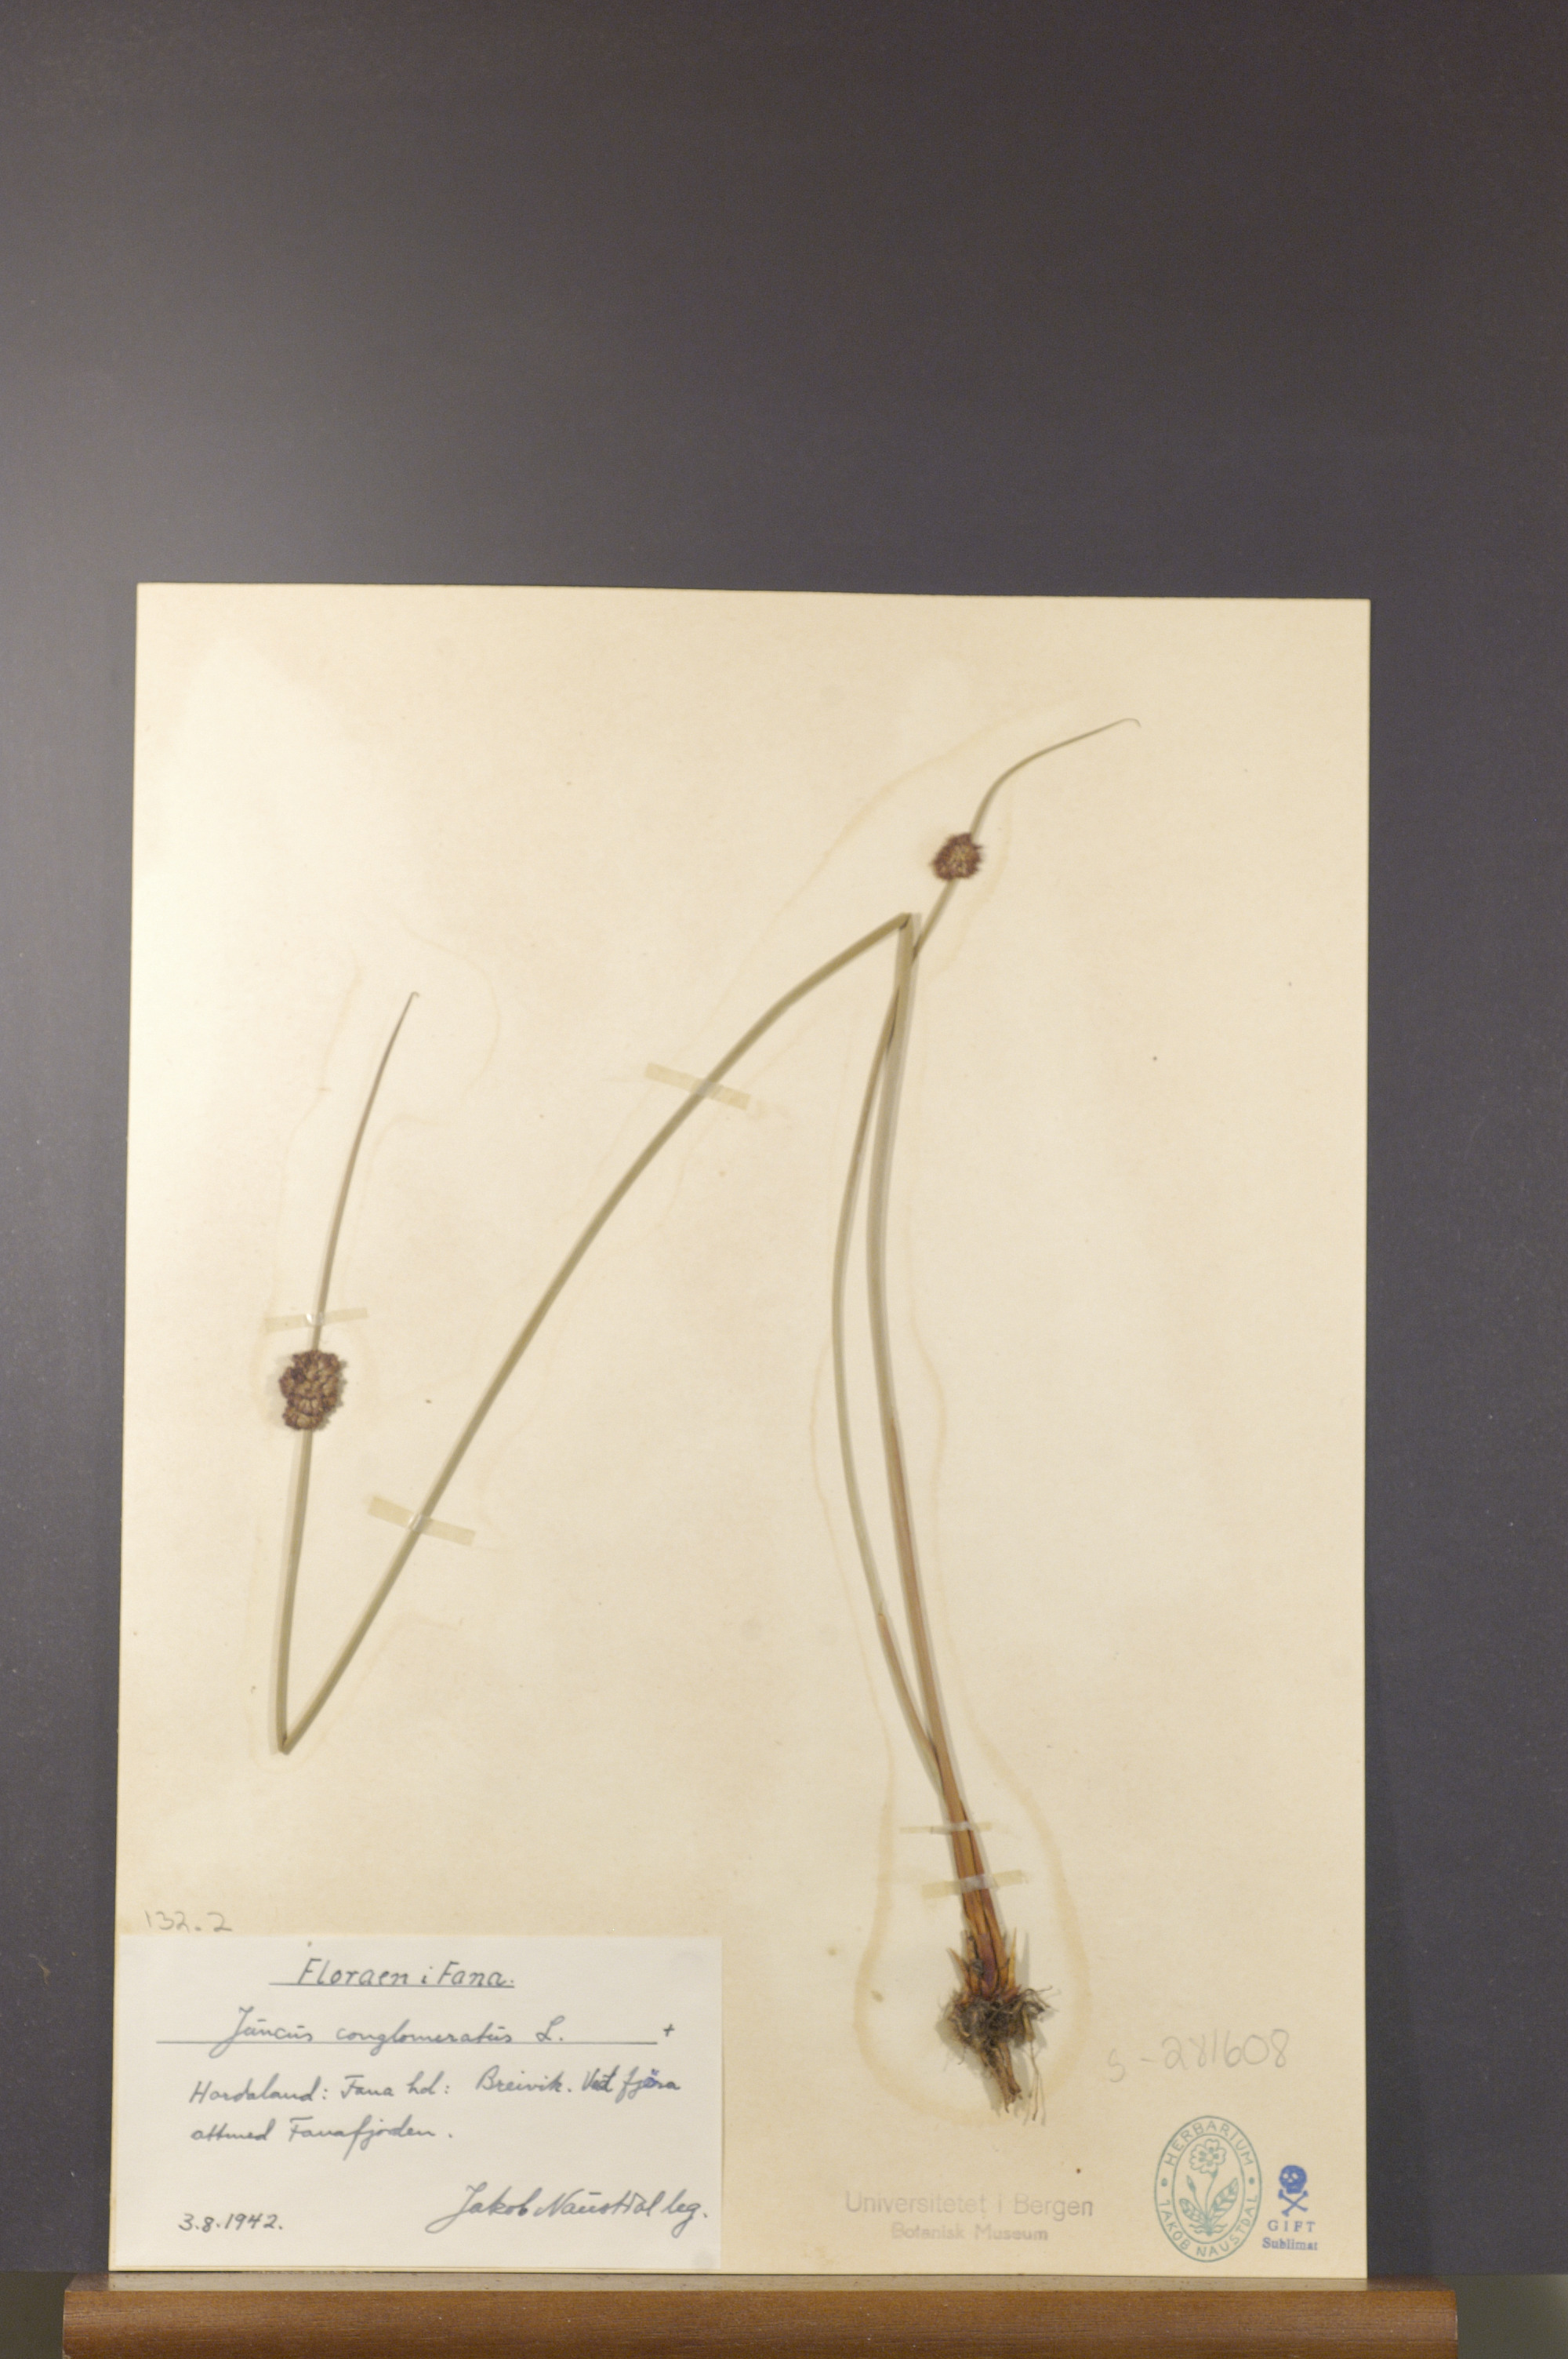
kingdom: Plantae
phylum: Tracheophyta
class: Liliopsida
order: Poales
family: Juncaceae
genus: Juncus
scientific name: Juncus conglomeratus
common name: Compact rush
